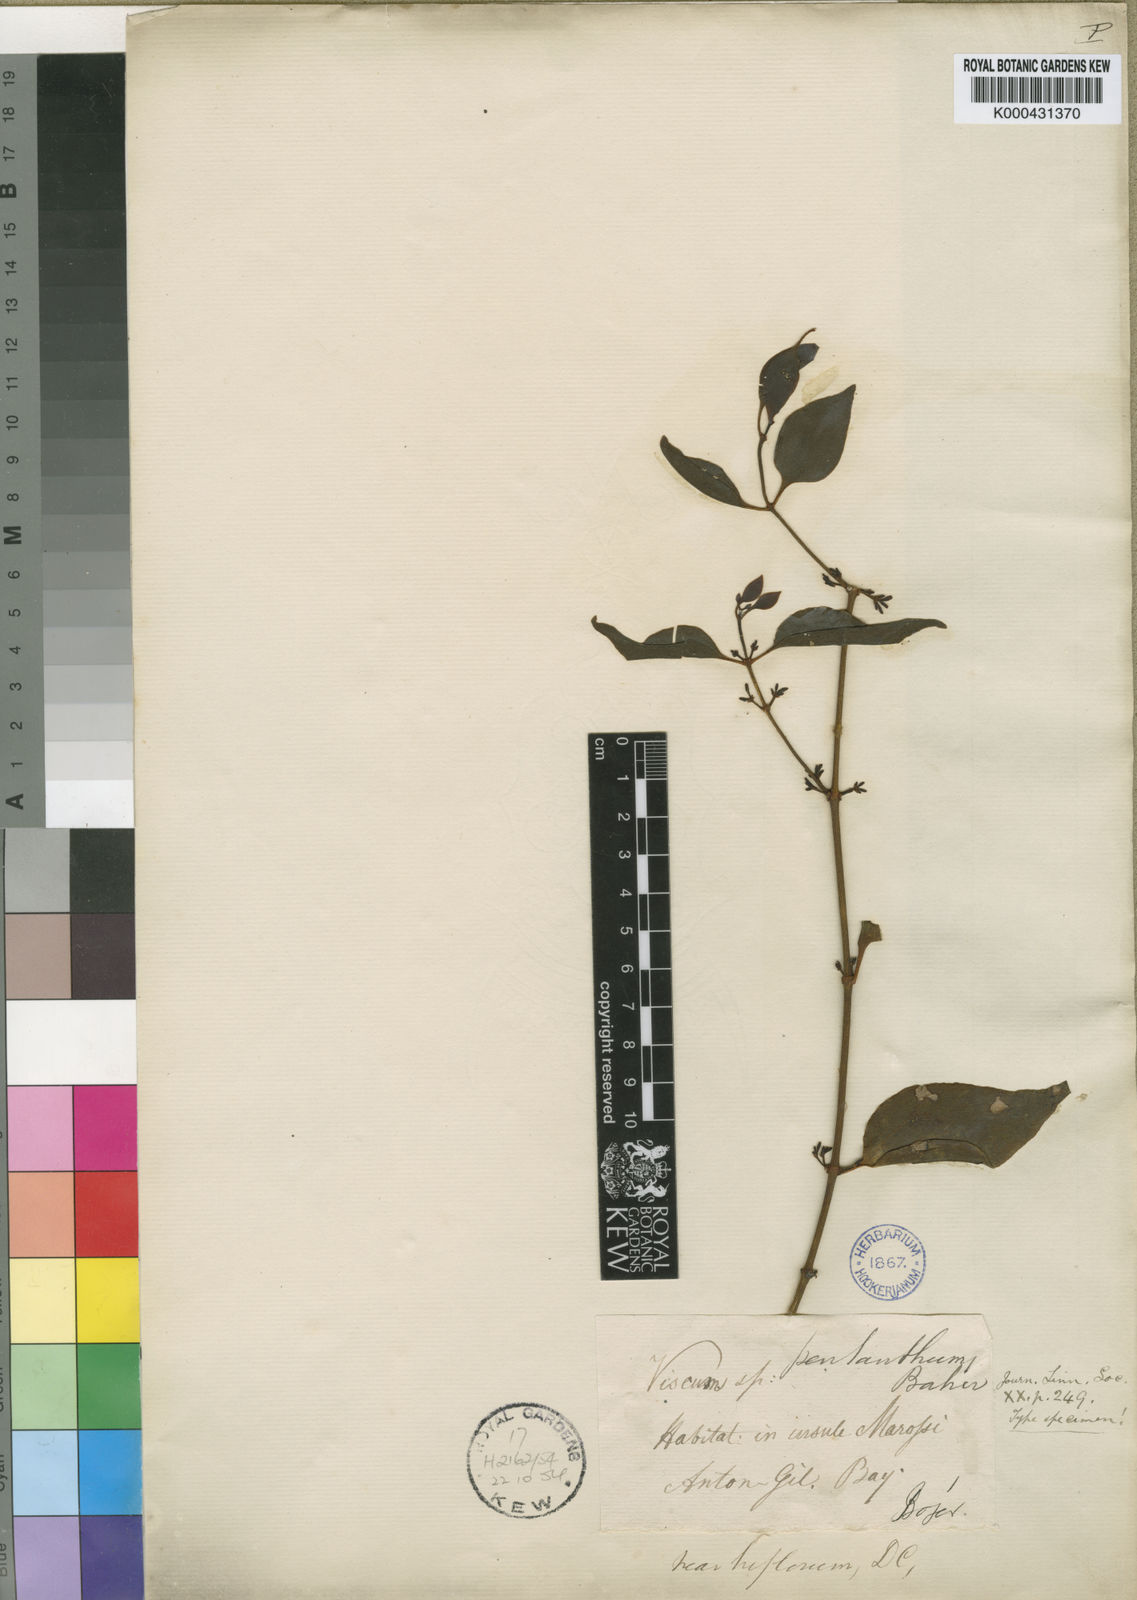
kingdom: Plantae
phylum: Tracheophyta
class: Magnoliopsida
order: Santalales
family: Viscaceae
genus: Viscum
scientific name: Viscum pentanthum
